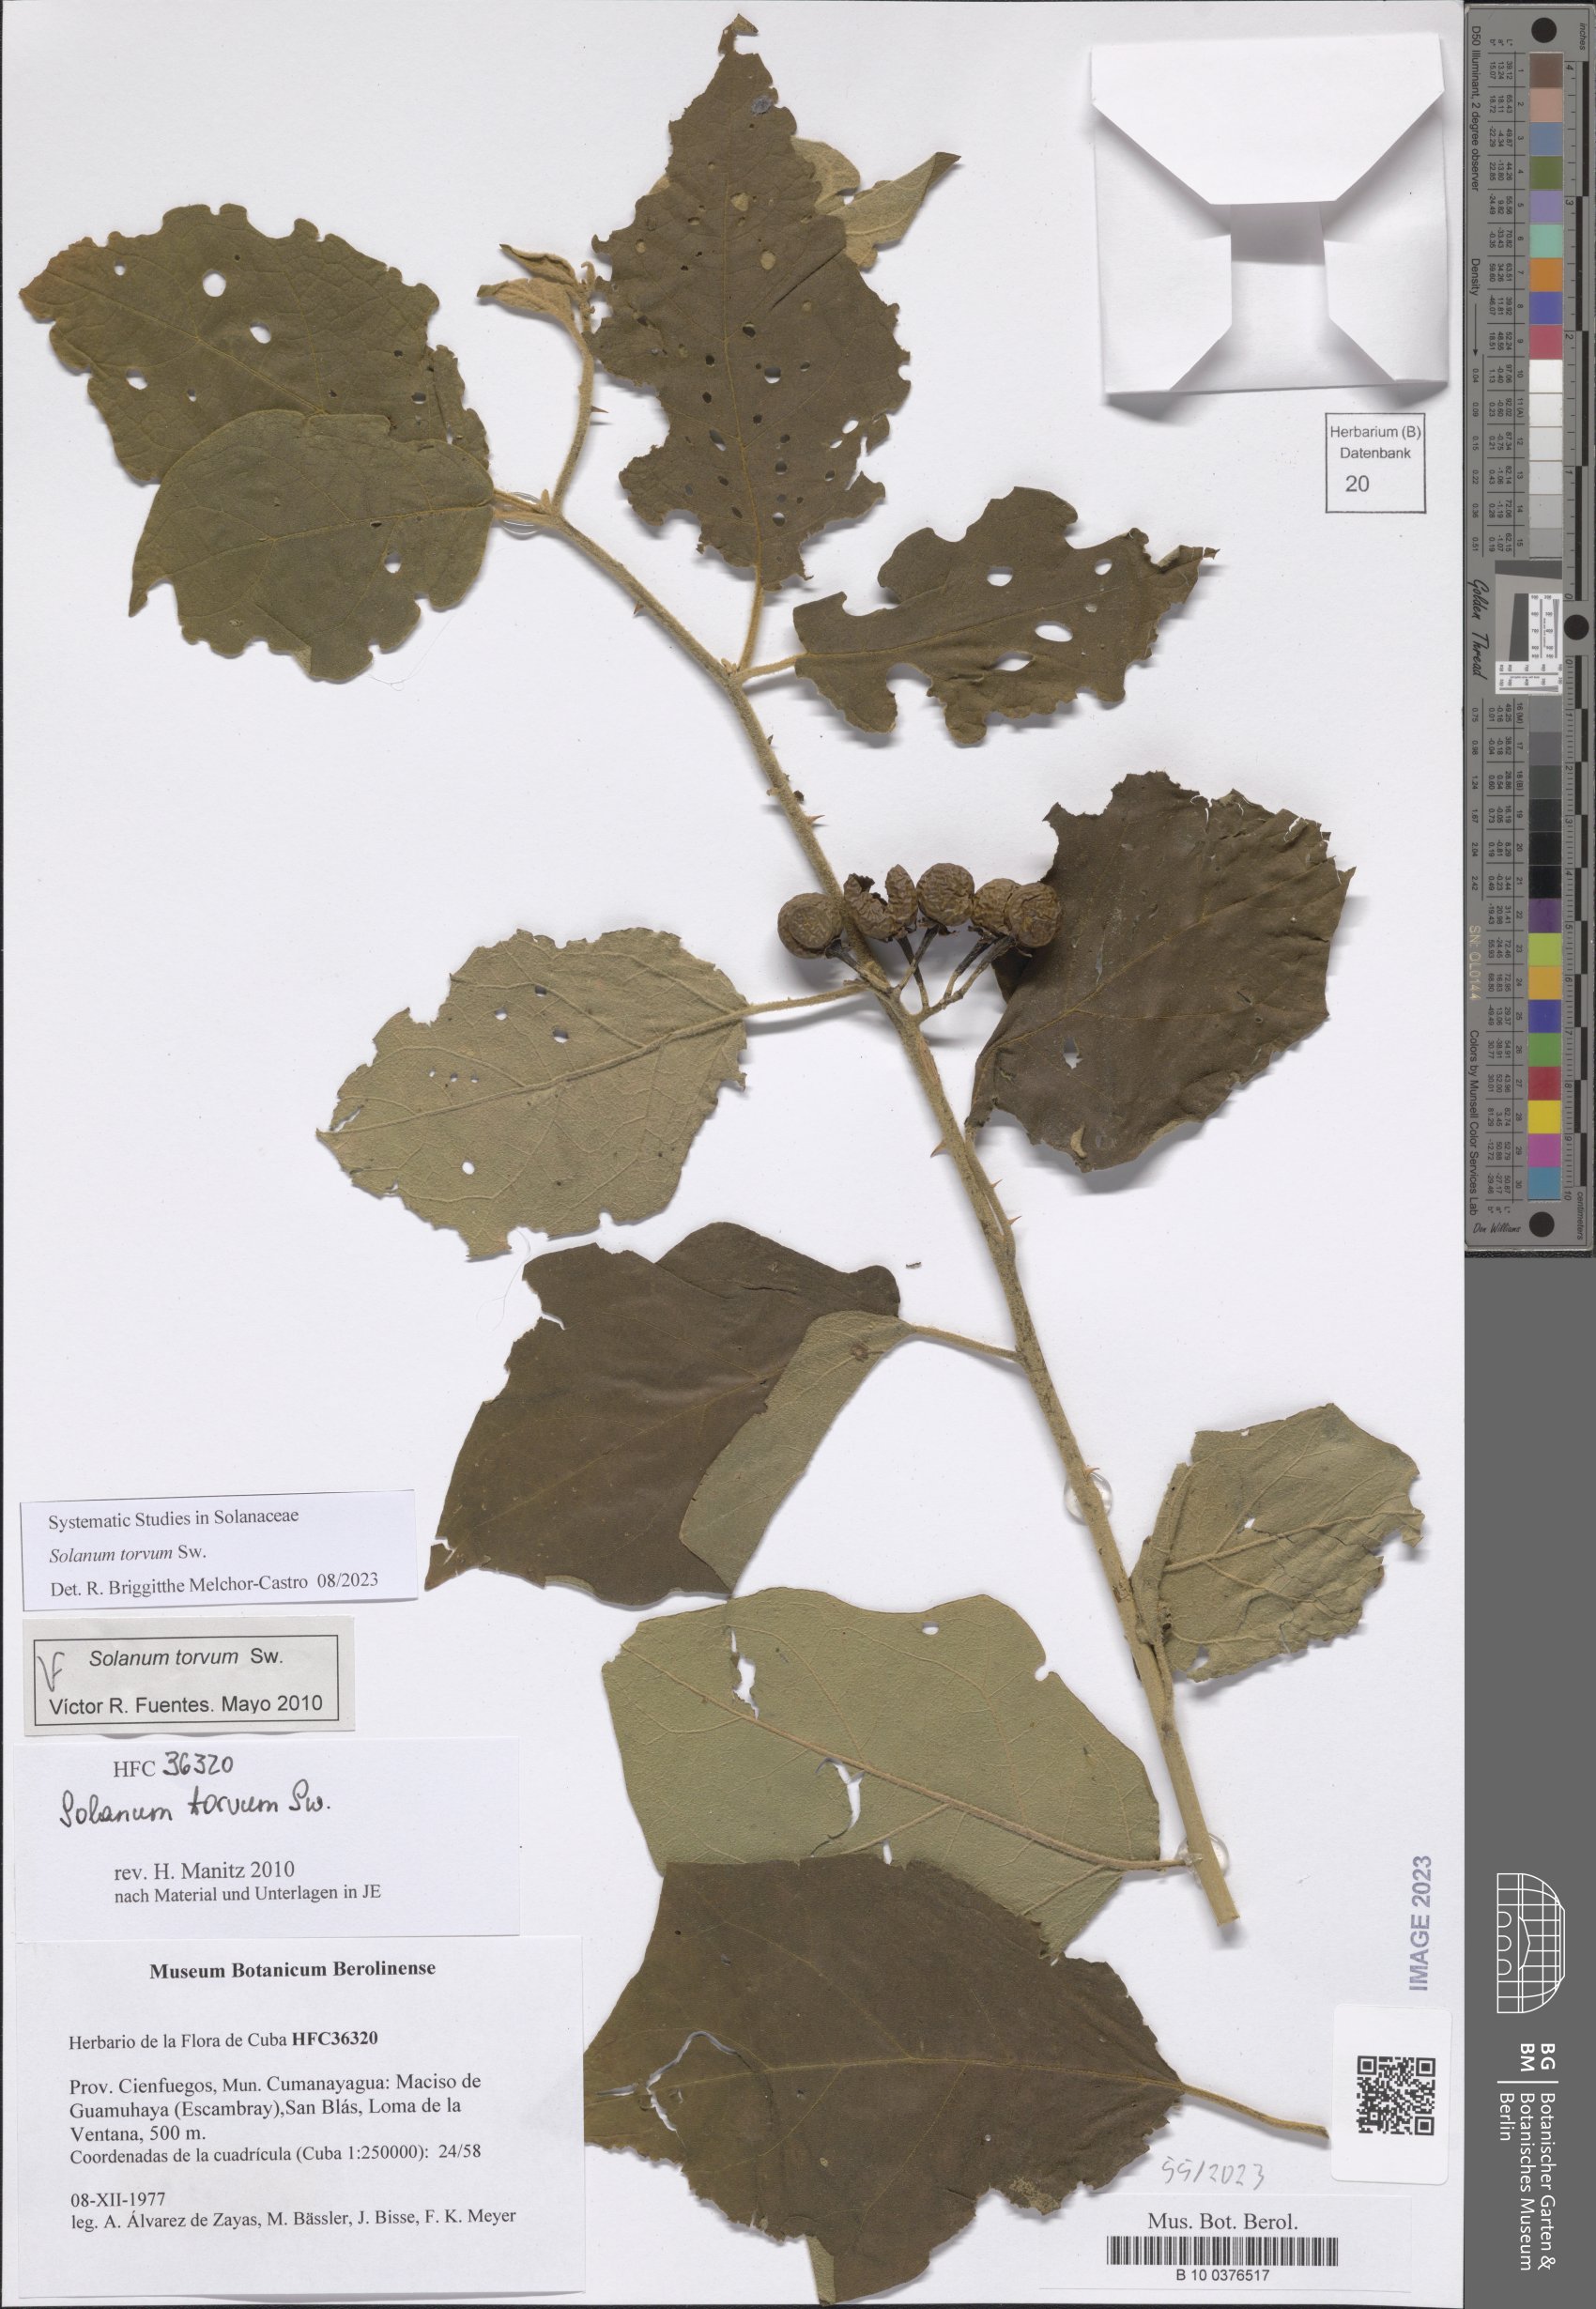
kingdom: Plantae
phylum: Tracheophyta
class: Magnoliopsida
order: Solanales
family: Solanaceae
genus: Solanum
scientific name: Solanum torvum
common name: Turkey berry
